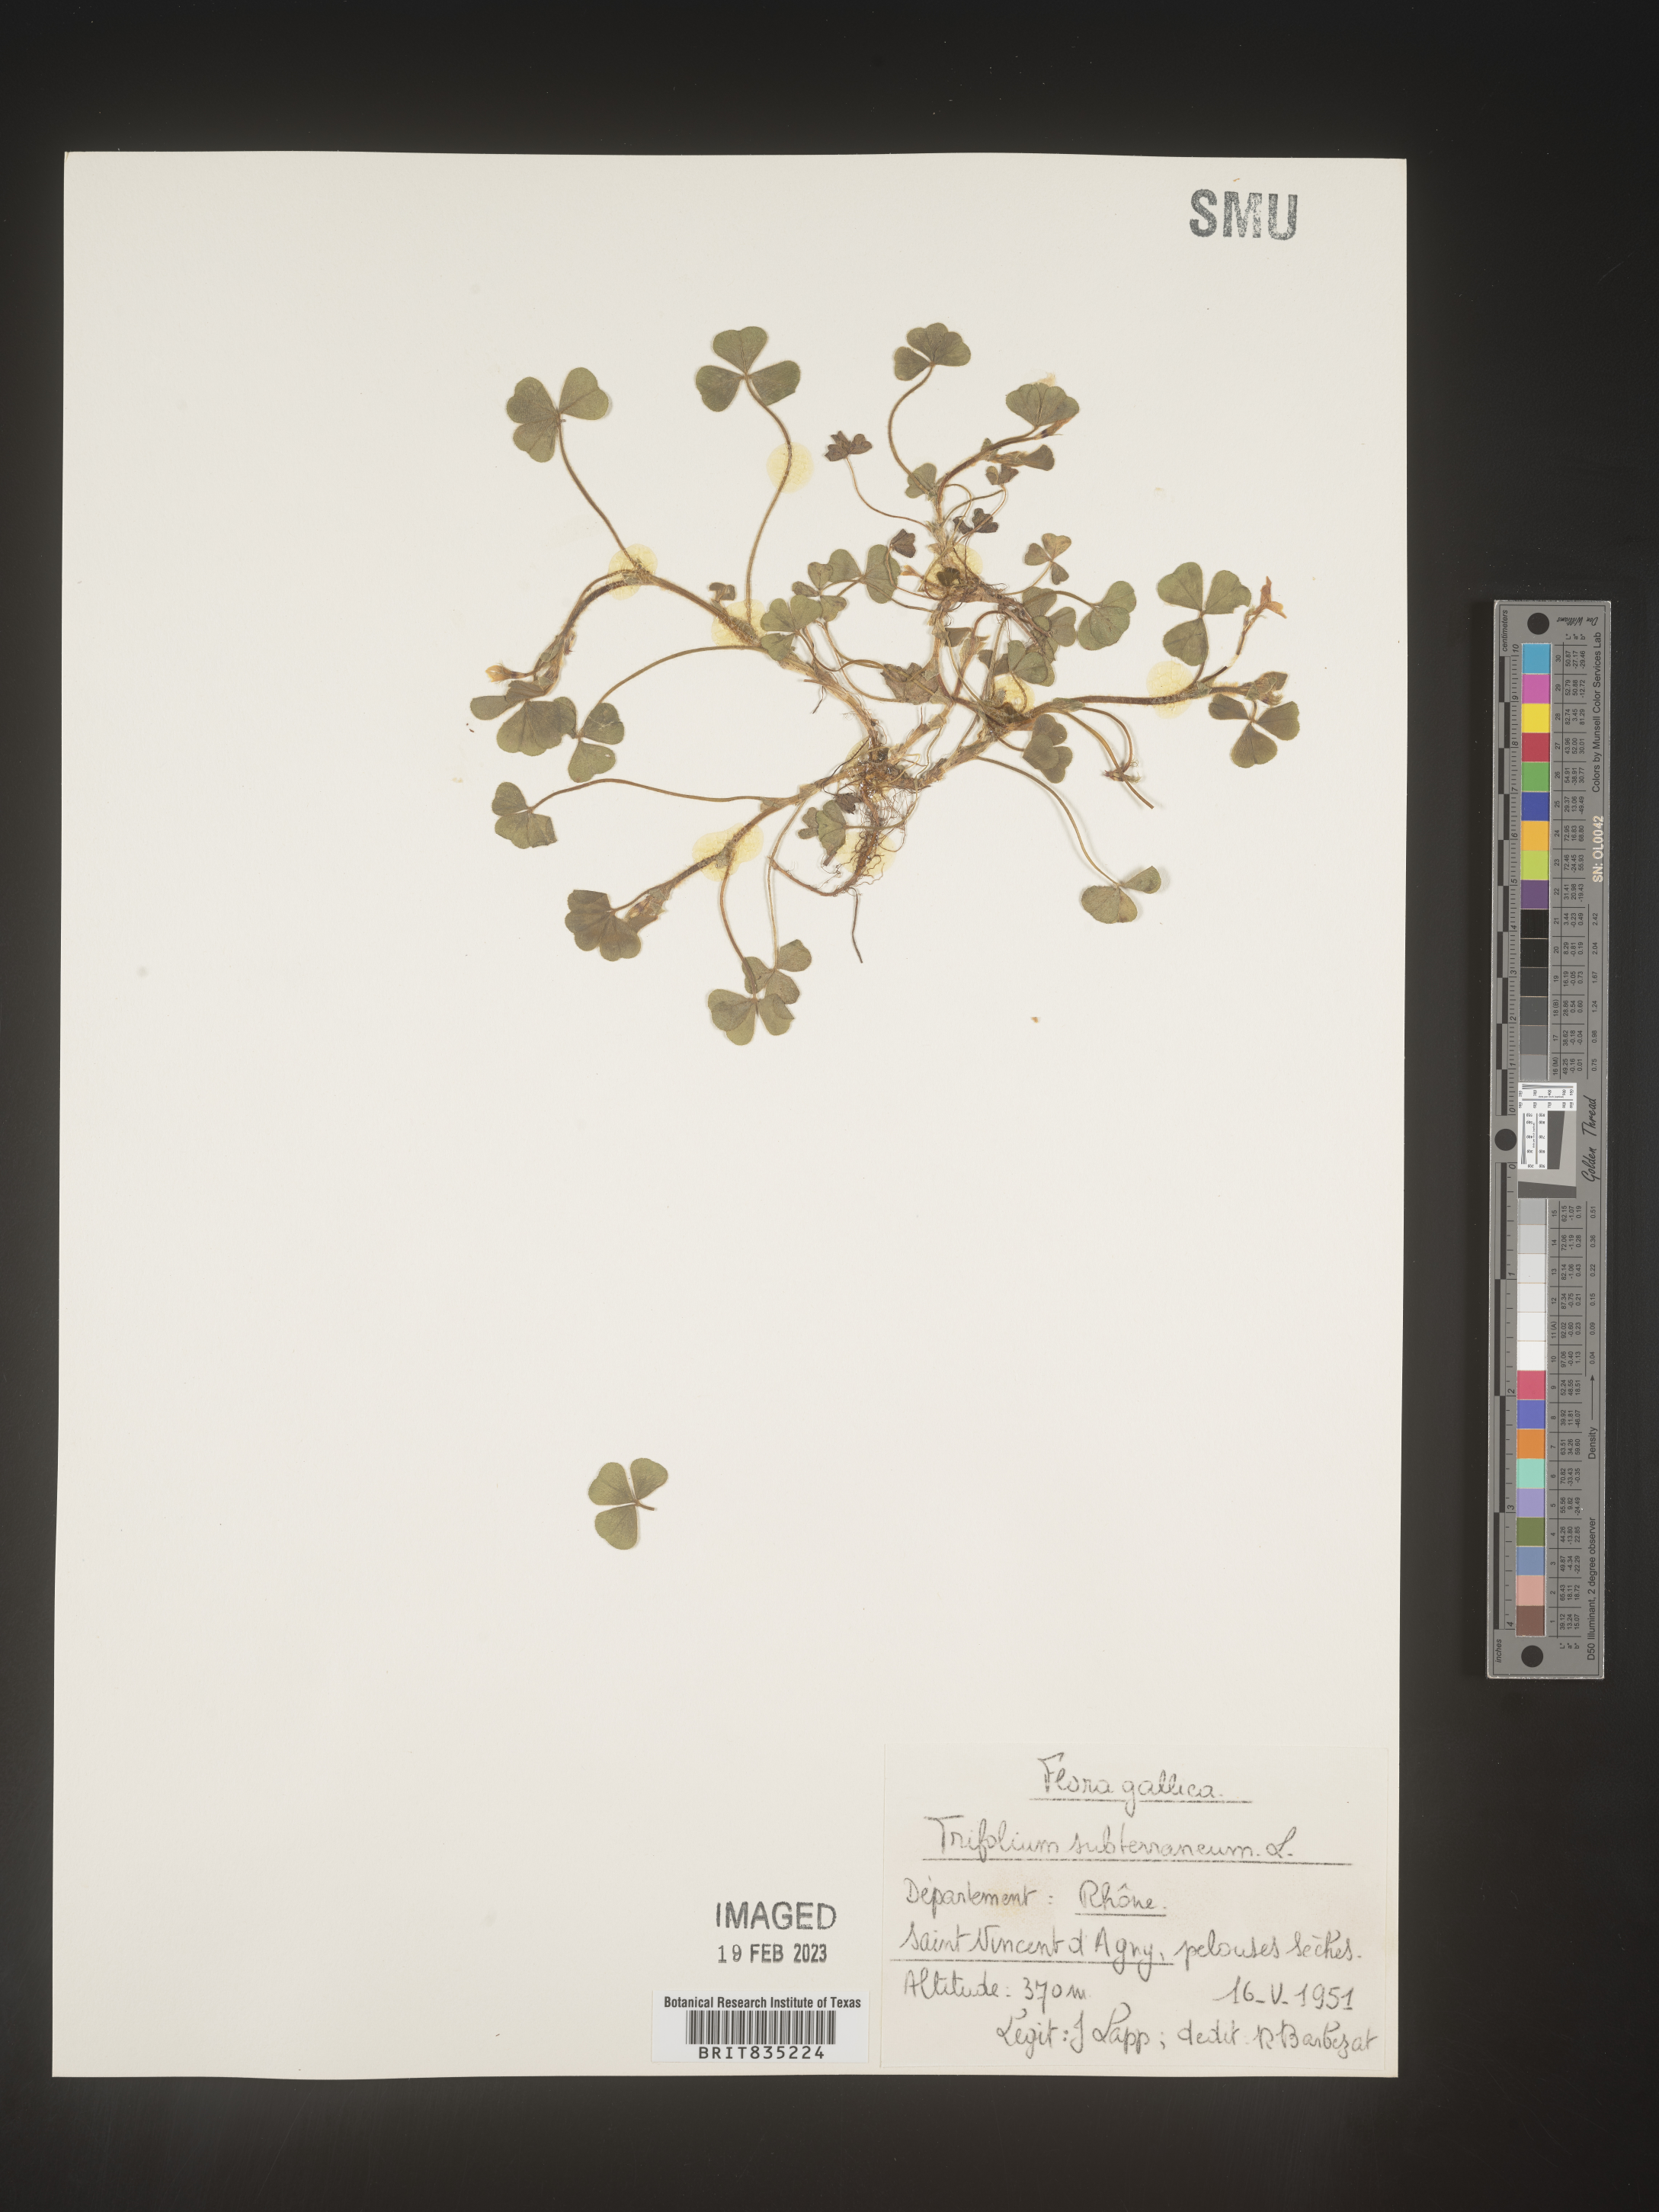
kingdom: Plantae
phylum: Tracheophyta
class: Magnoliopsida
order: Fabales
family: Fabaceae
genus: Trifolium
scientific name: Trifolium
